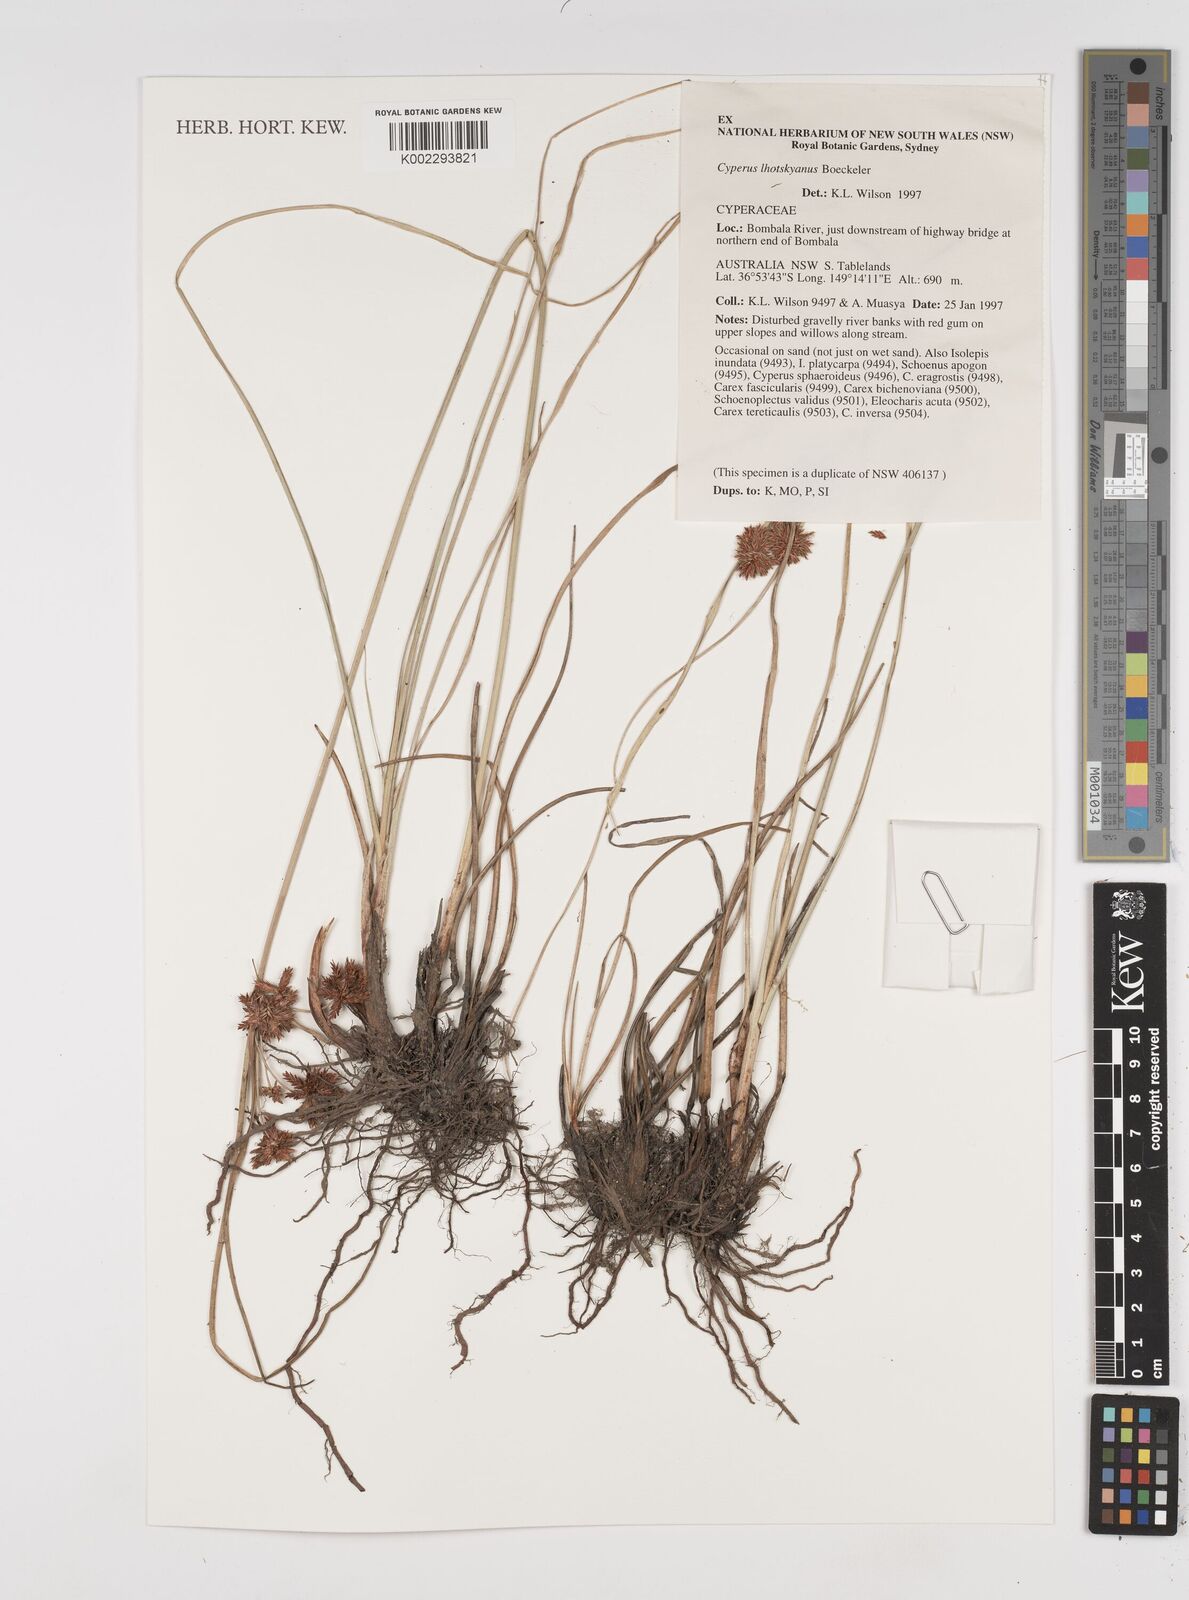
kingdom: Plantae
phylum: Tracheophyta
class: Liliopsida
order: Poales
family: Cyperaceae
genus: Cyperus
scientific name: Cyperus lhotskyanus
